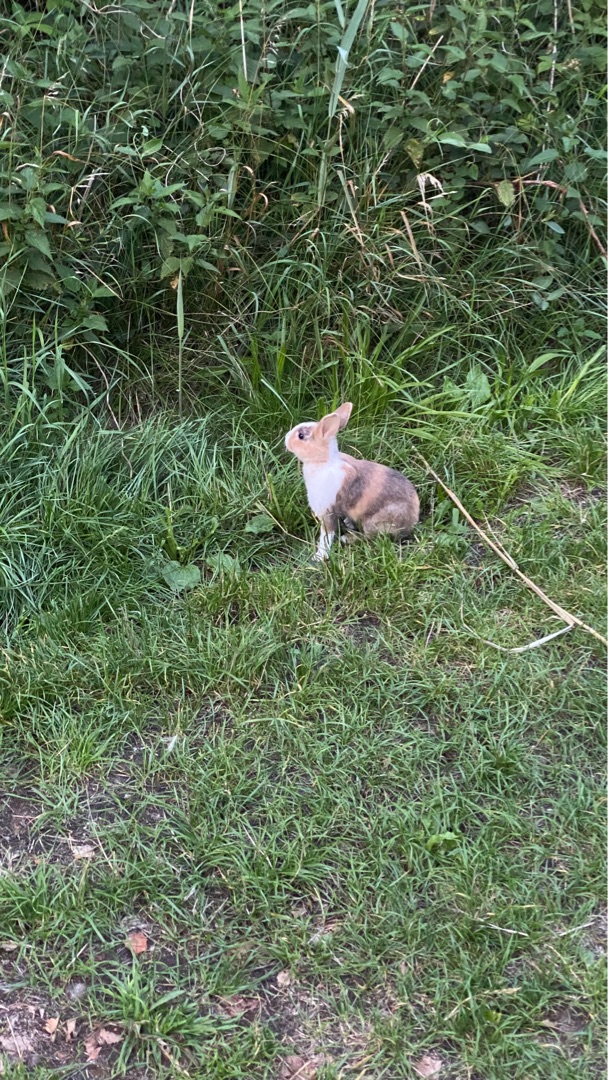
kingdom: Animalia
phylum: Chordata
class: Mammalia
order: Lagomorpha
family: Leporidae
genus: Oryctolagus
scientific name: Oryctolagus cuniculus
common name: Vildkanin
